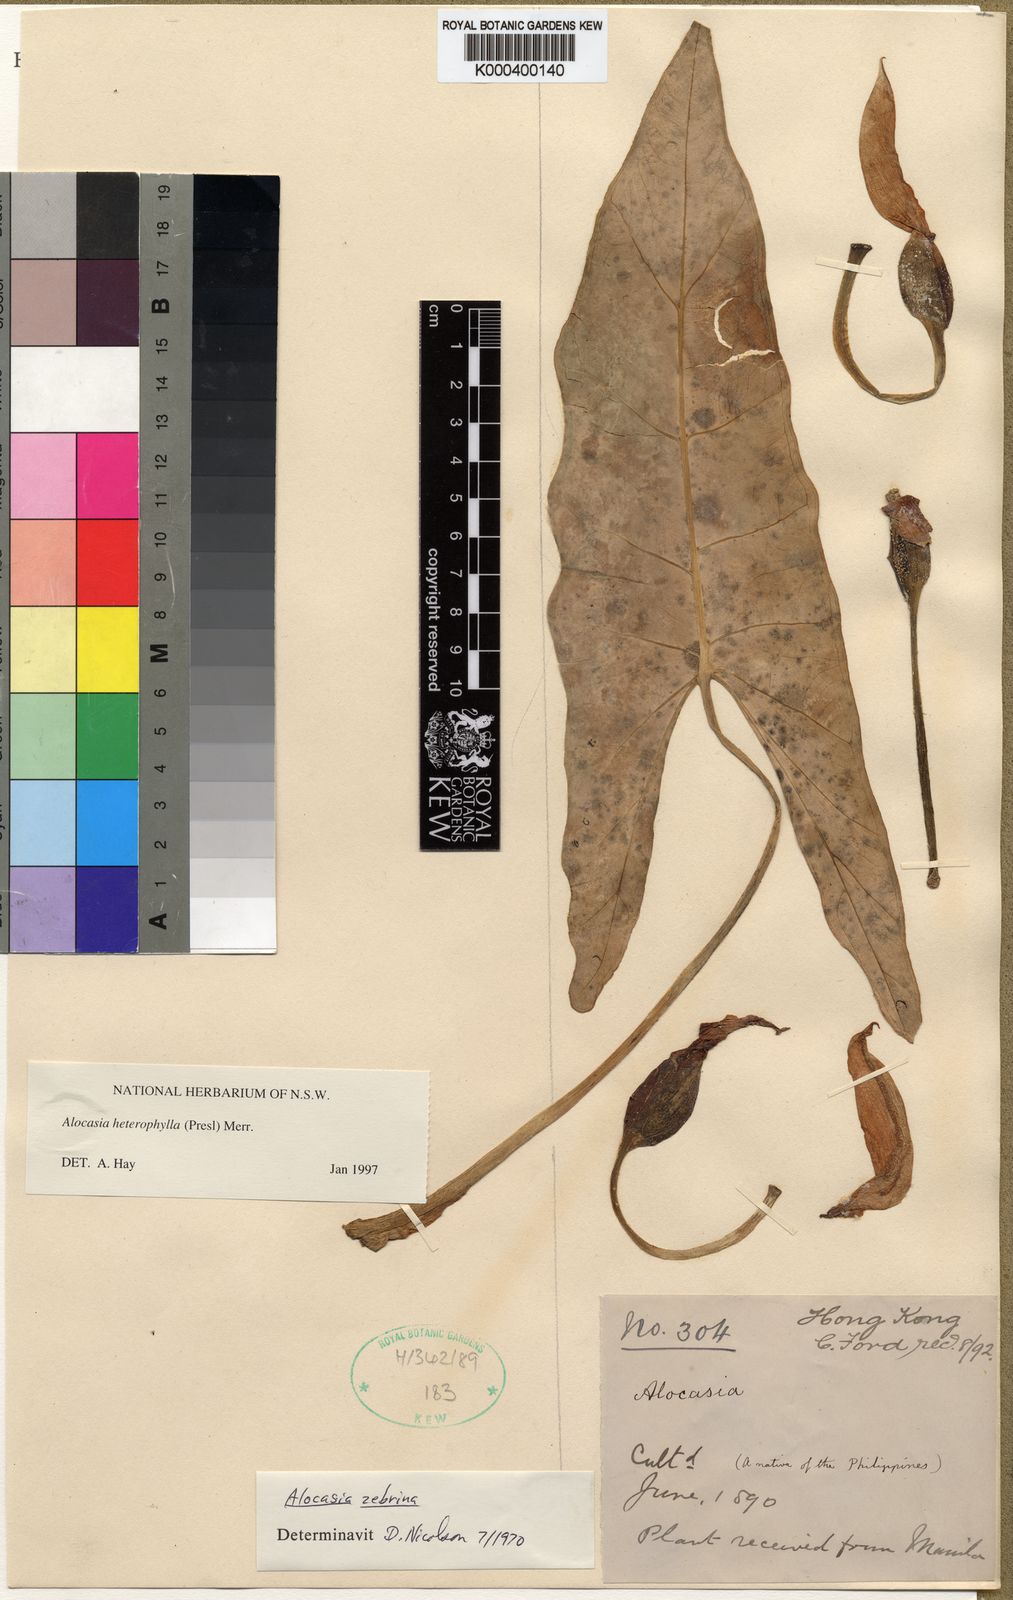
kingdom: Plantae
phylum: Tracheophyta
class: Liliopsida
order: Alismatales
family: Araceae
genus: Alocasia
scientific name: Alocasia heterophylla
